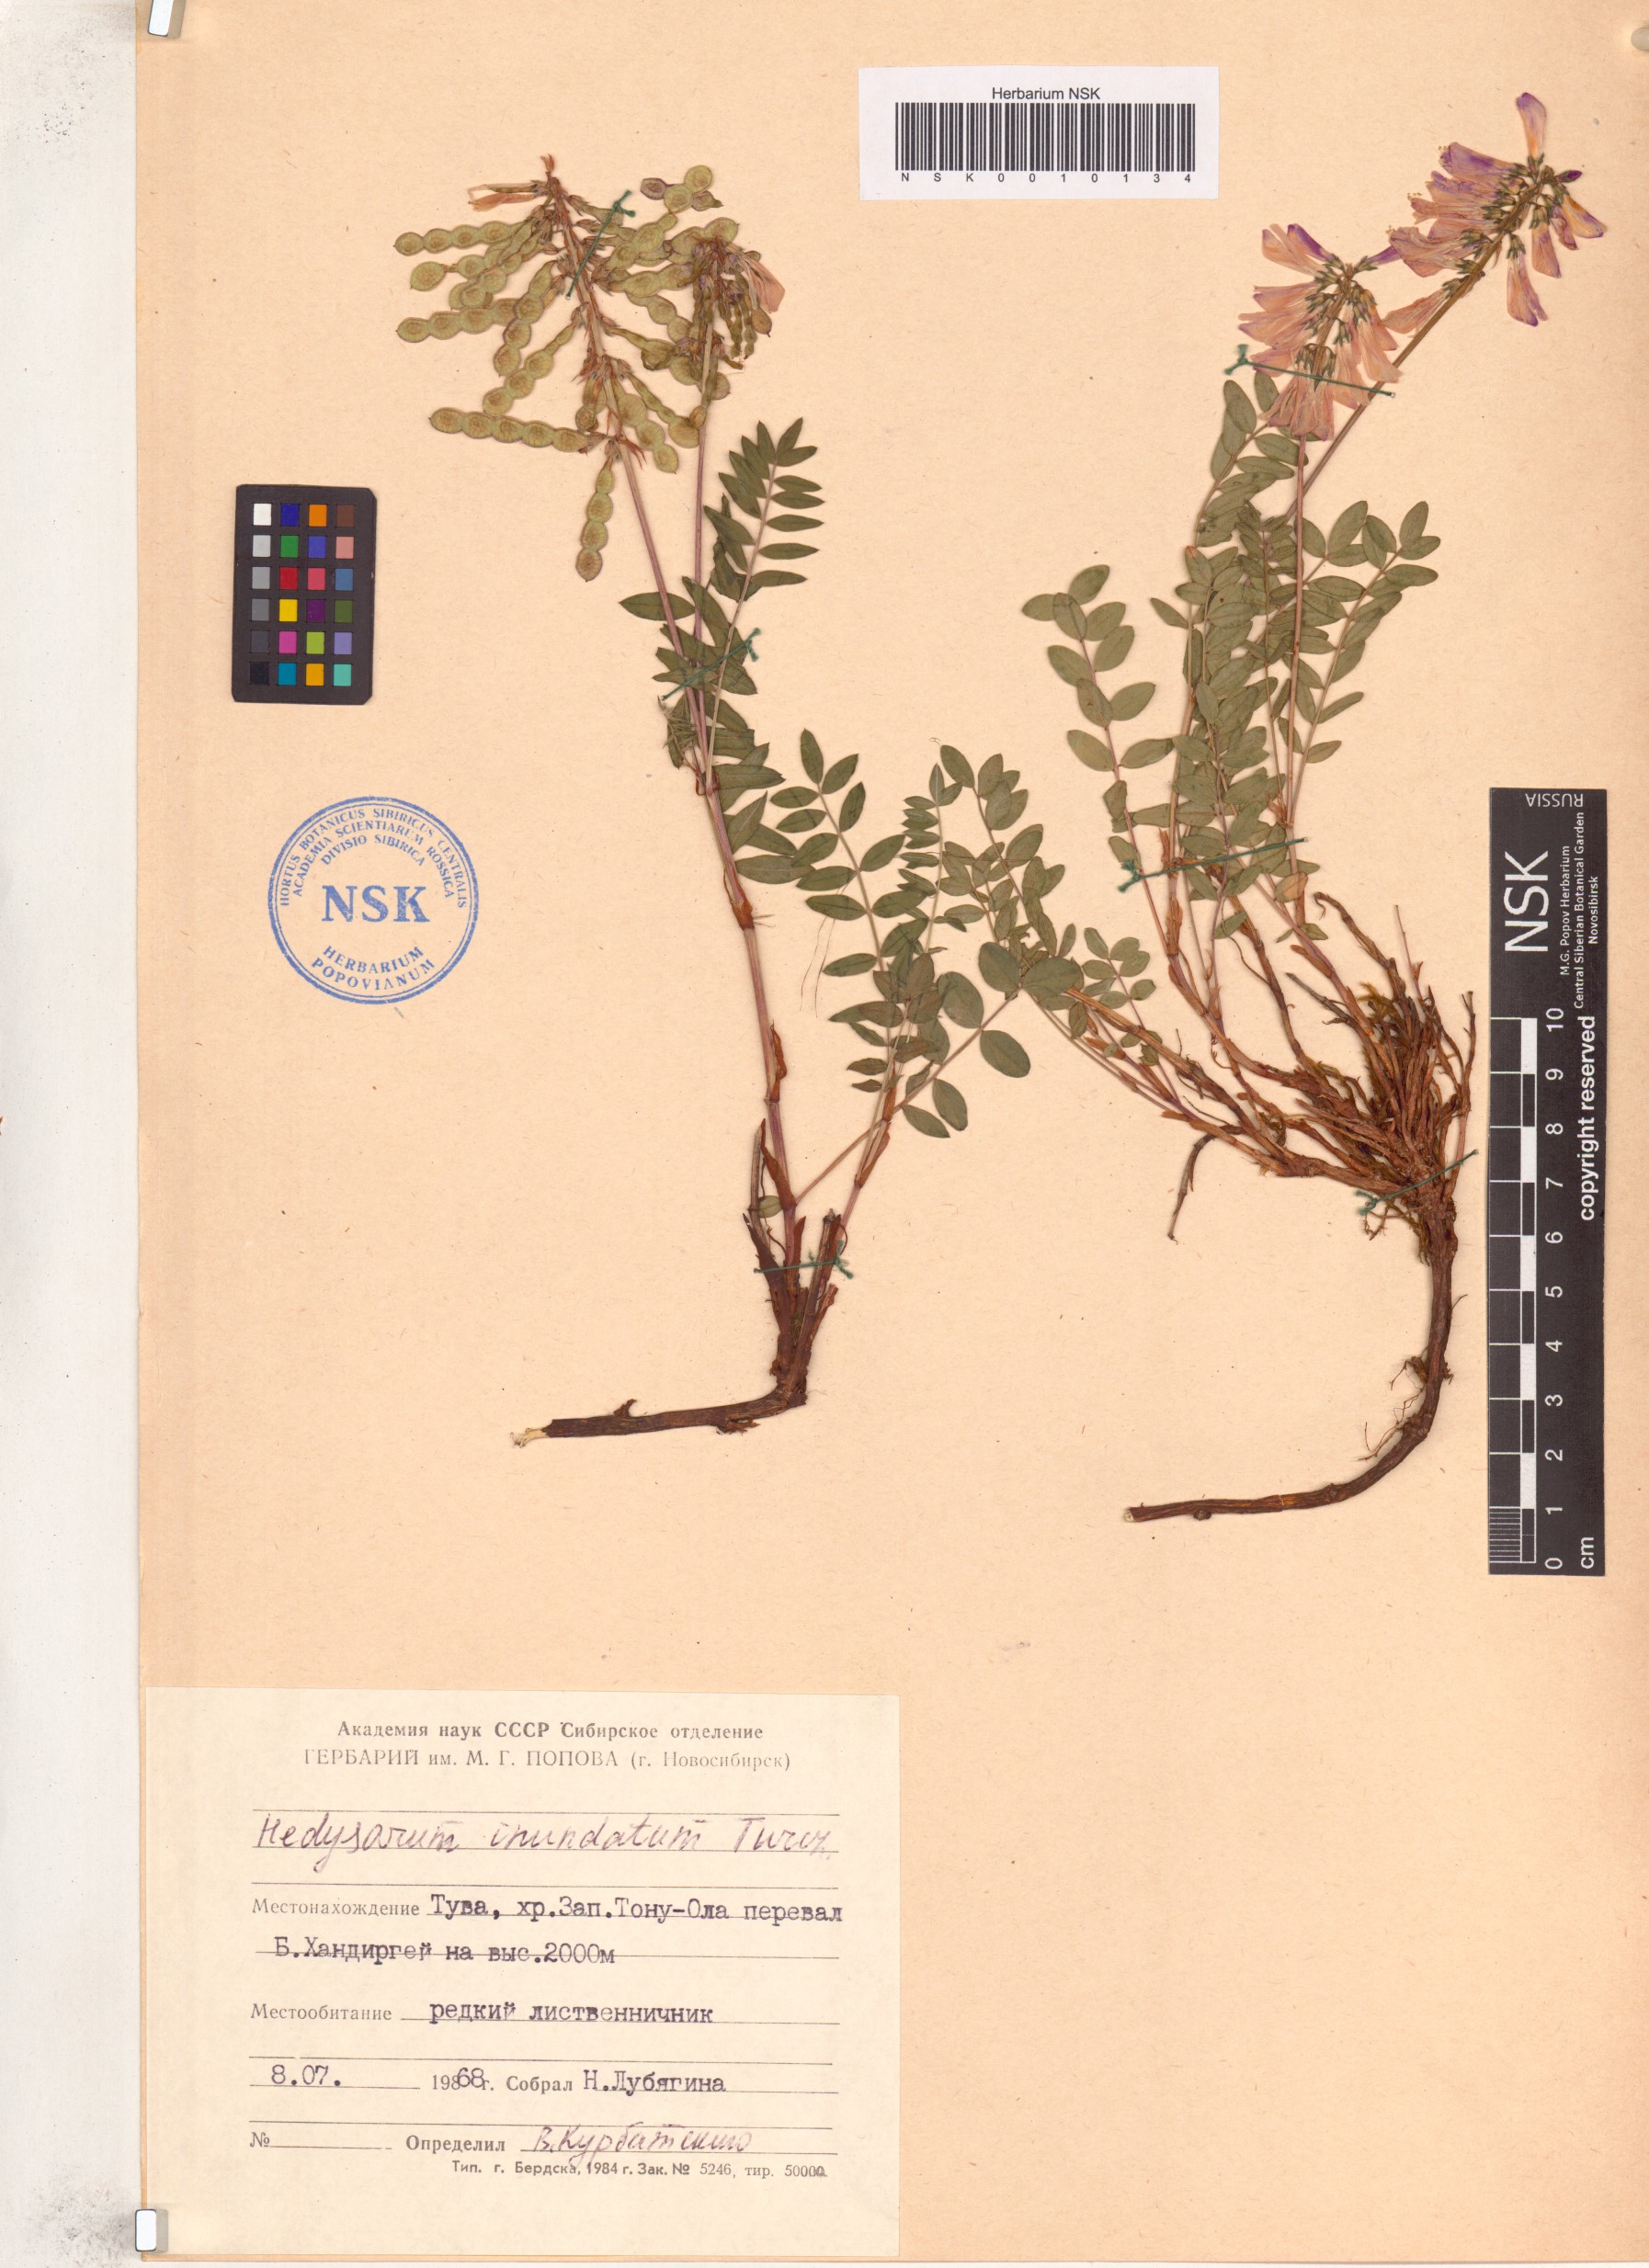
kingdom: Plantae
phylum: Tracheophyta
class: Magnoliopsida
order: Fabales
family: Fabaceae
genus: Hedysarum
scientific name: Hedysarum inundatum
